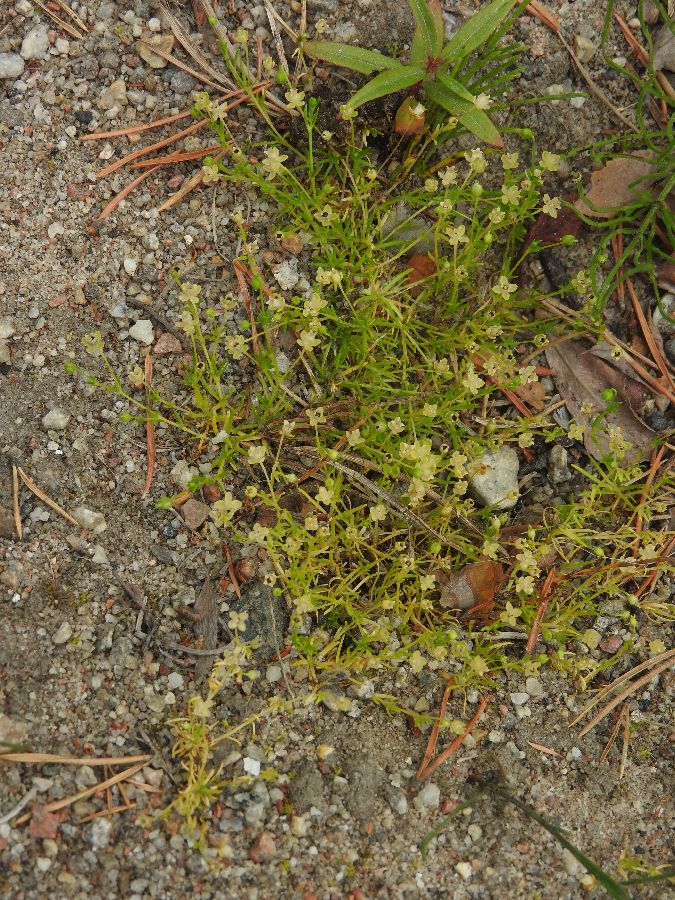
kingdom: Plantae
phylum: Tracheophyta
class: Magnoliopsida
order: Caryophyllales
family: Caryophyllaceae
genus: Sagina
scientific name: Sagina procumbens
